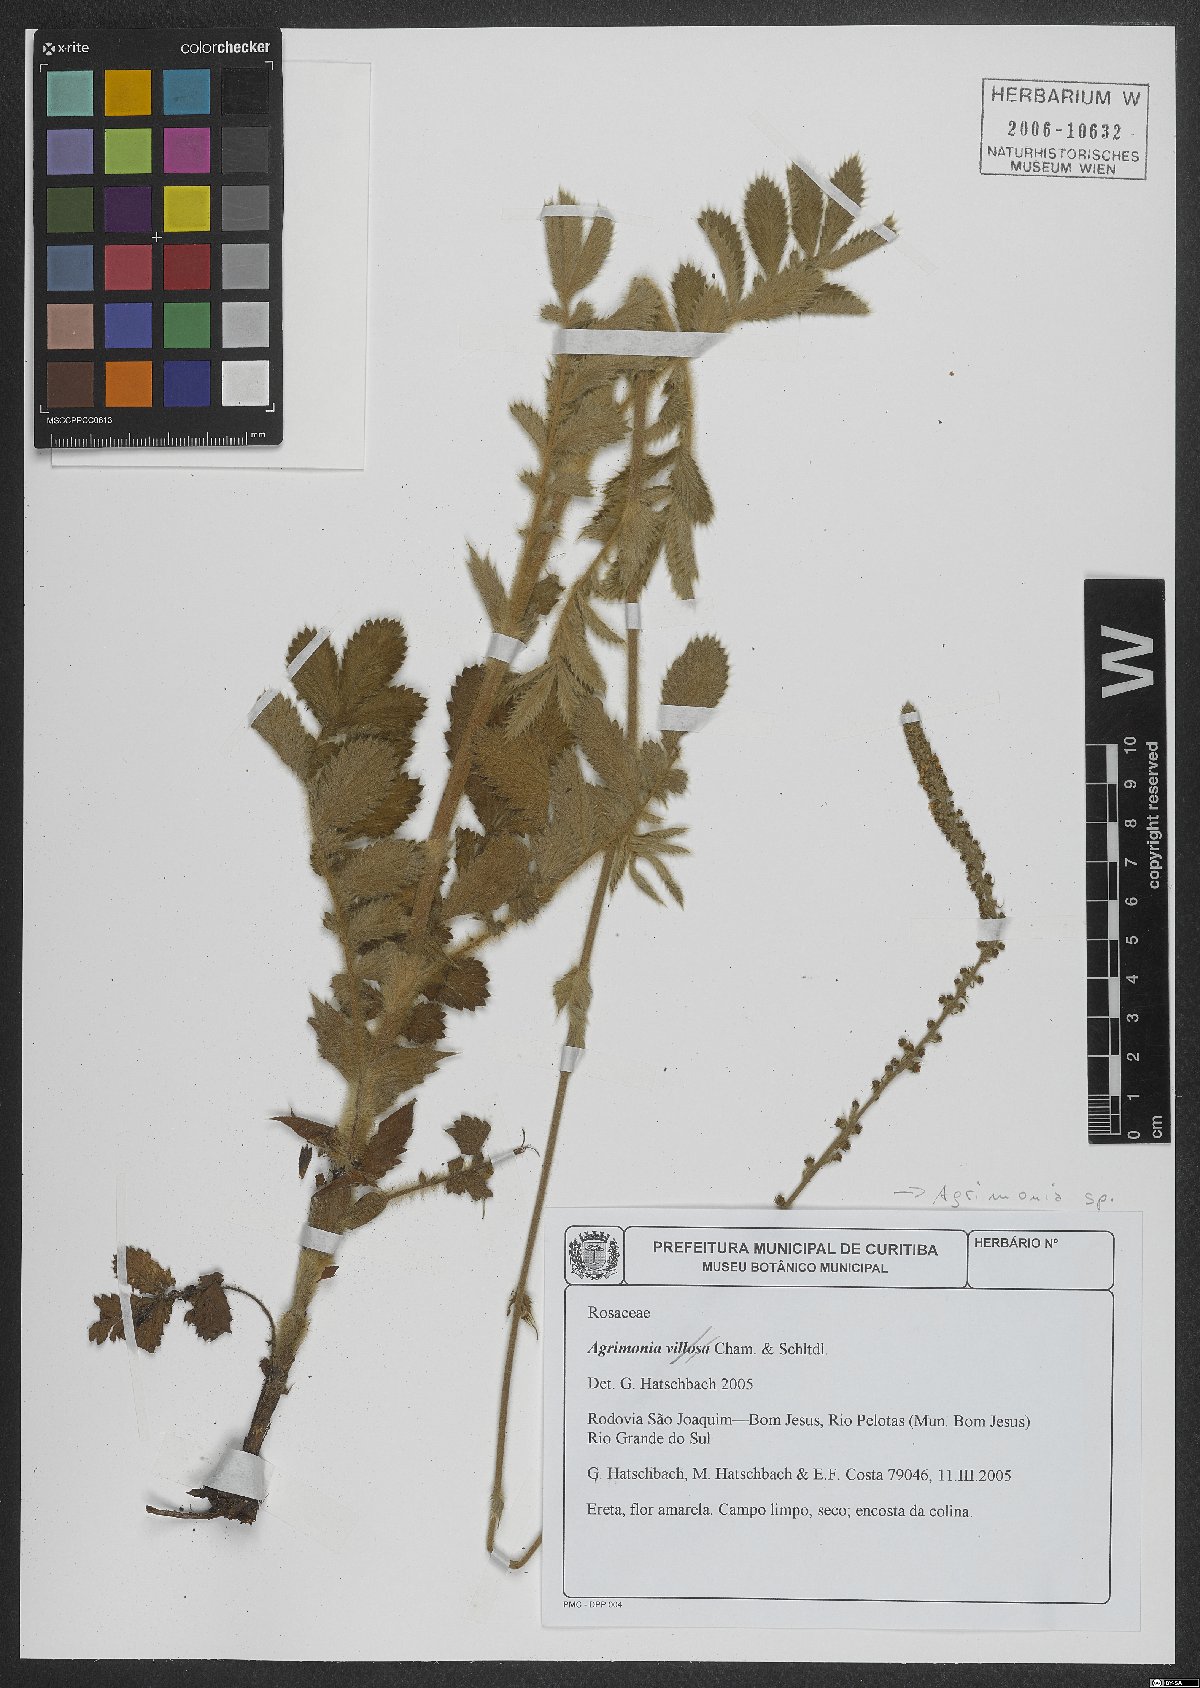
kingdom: Plantae
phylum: Tracheophyta
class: Magnoliopsida
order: Rosales
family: Rosaceae
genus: Agrimonia
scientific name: Agrimonia
